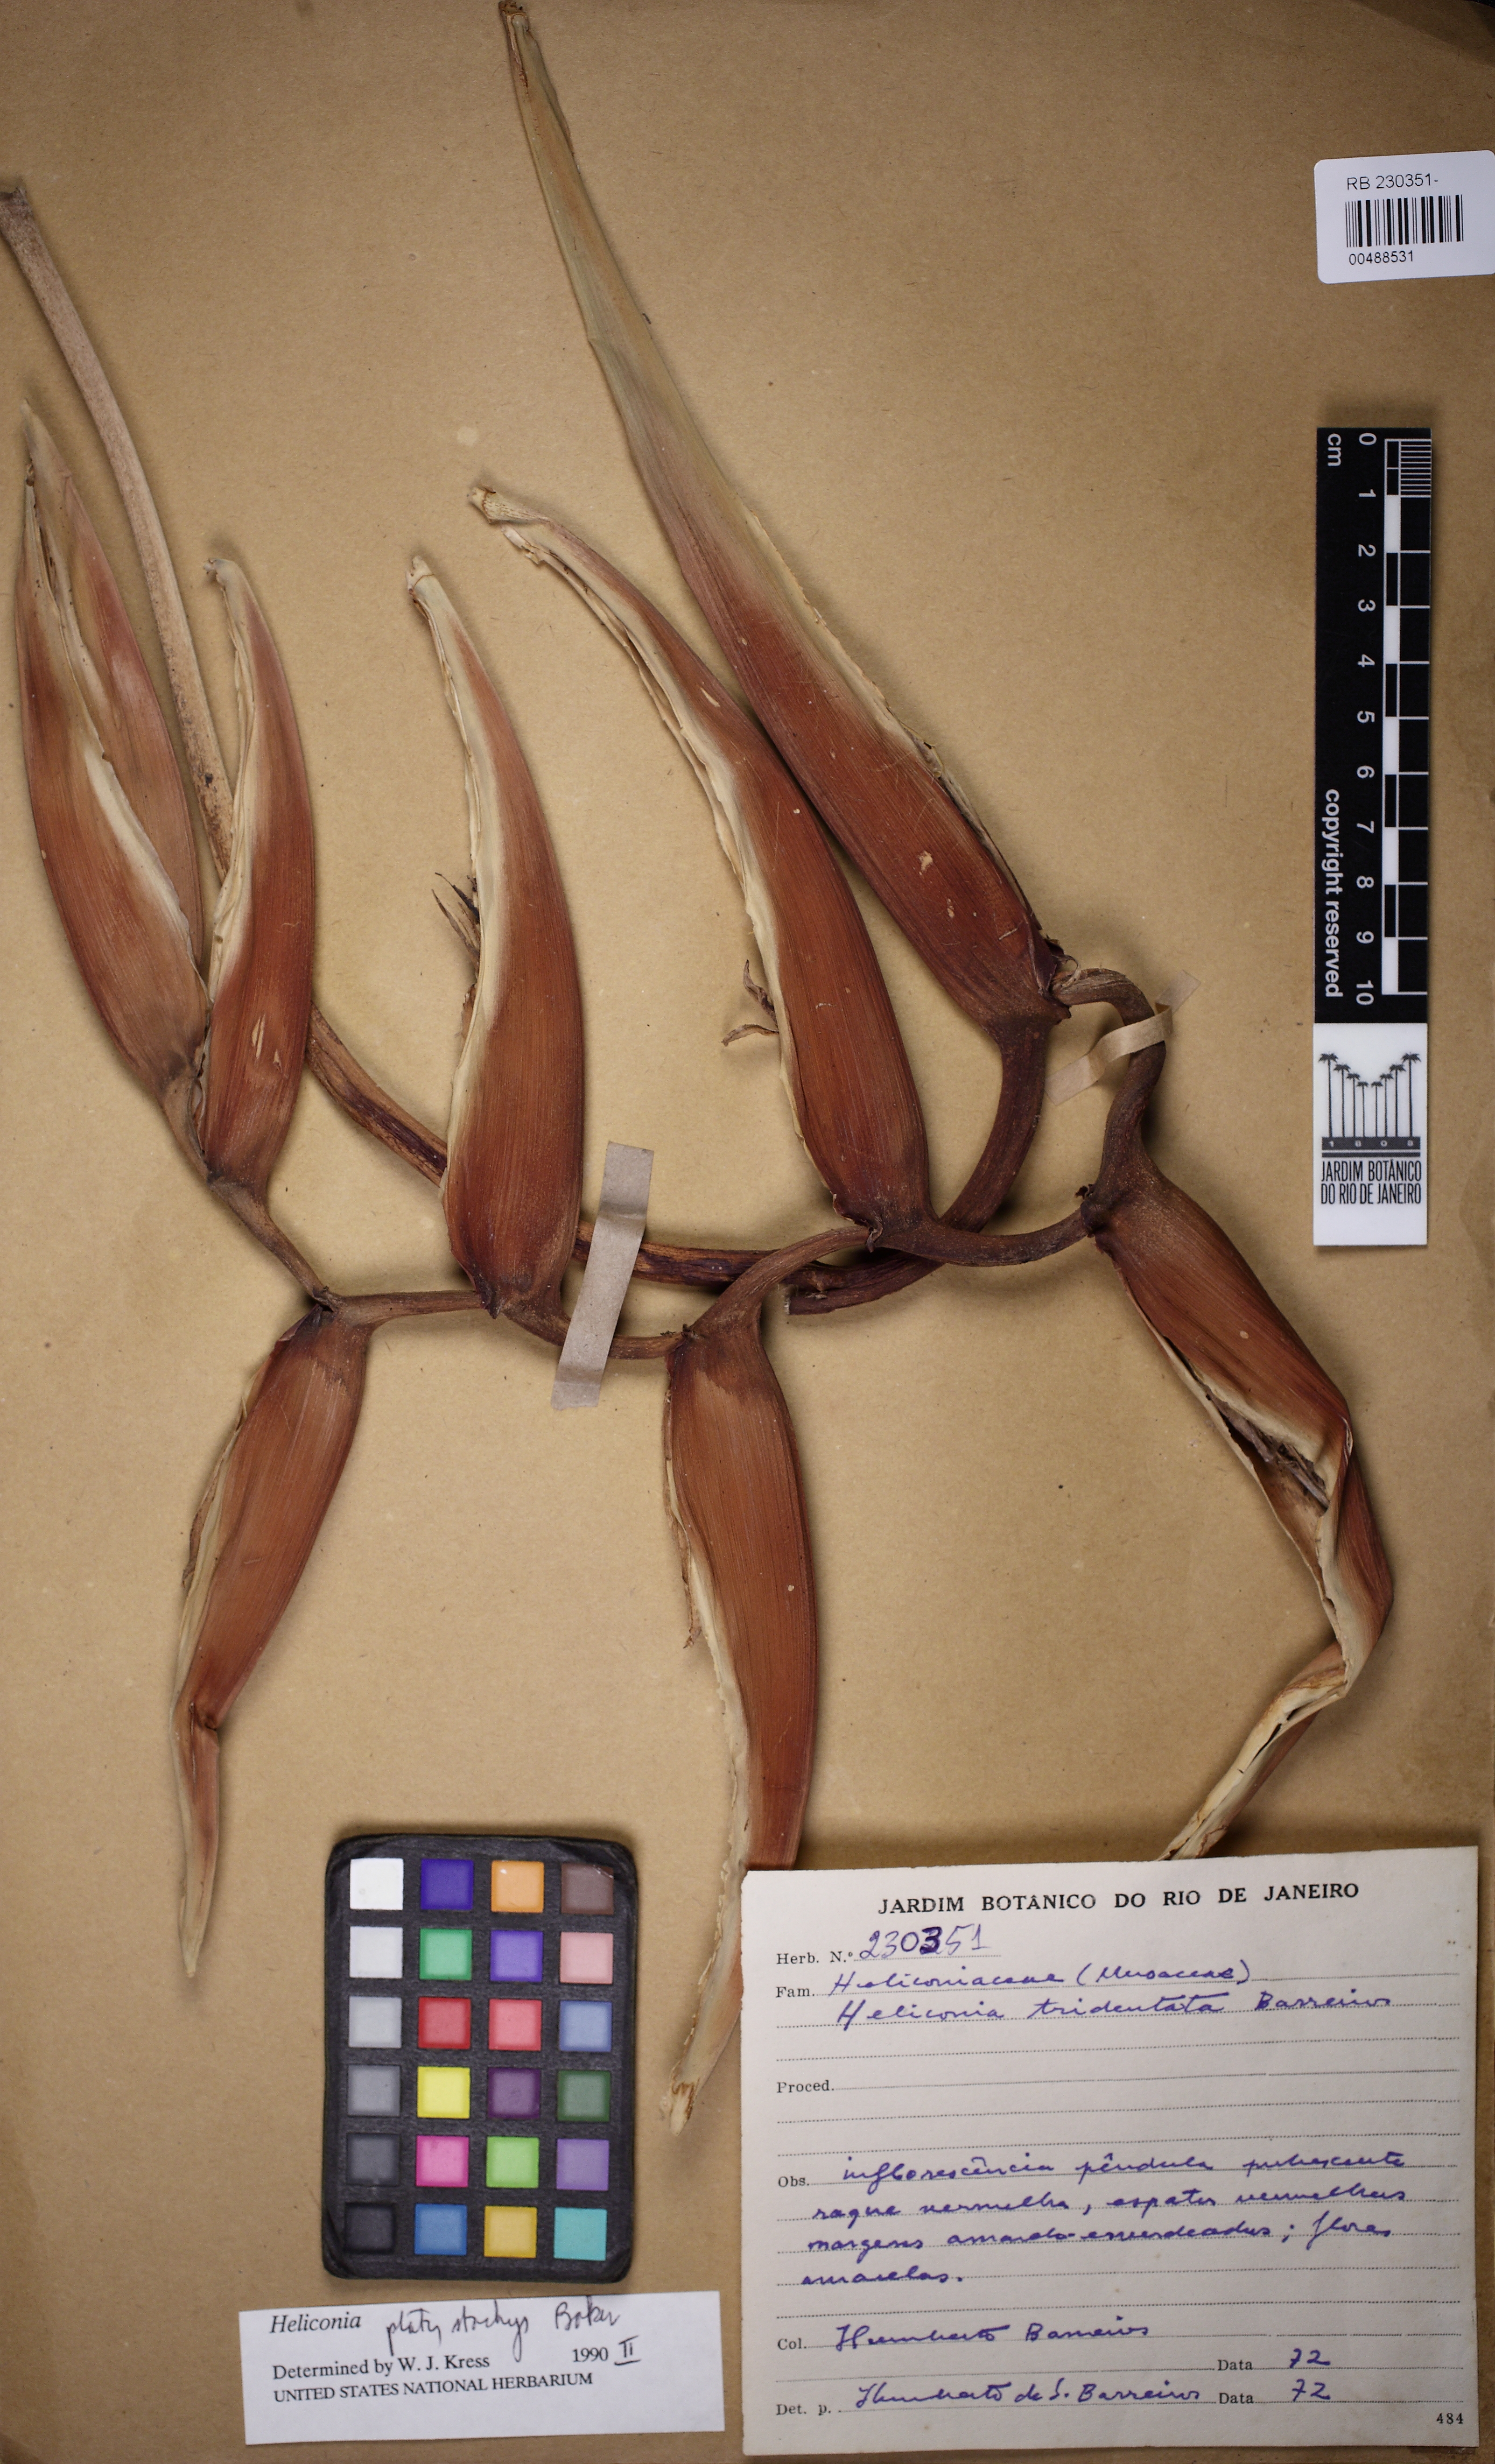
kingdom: Plantae
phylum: Tracheophyta
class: Liliopsida
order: Zingiberales
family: Heliconiaceae
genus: Heliconia
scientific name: Heliconia platystachys
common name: False bird of paradise
